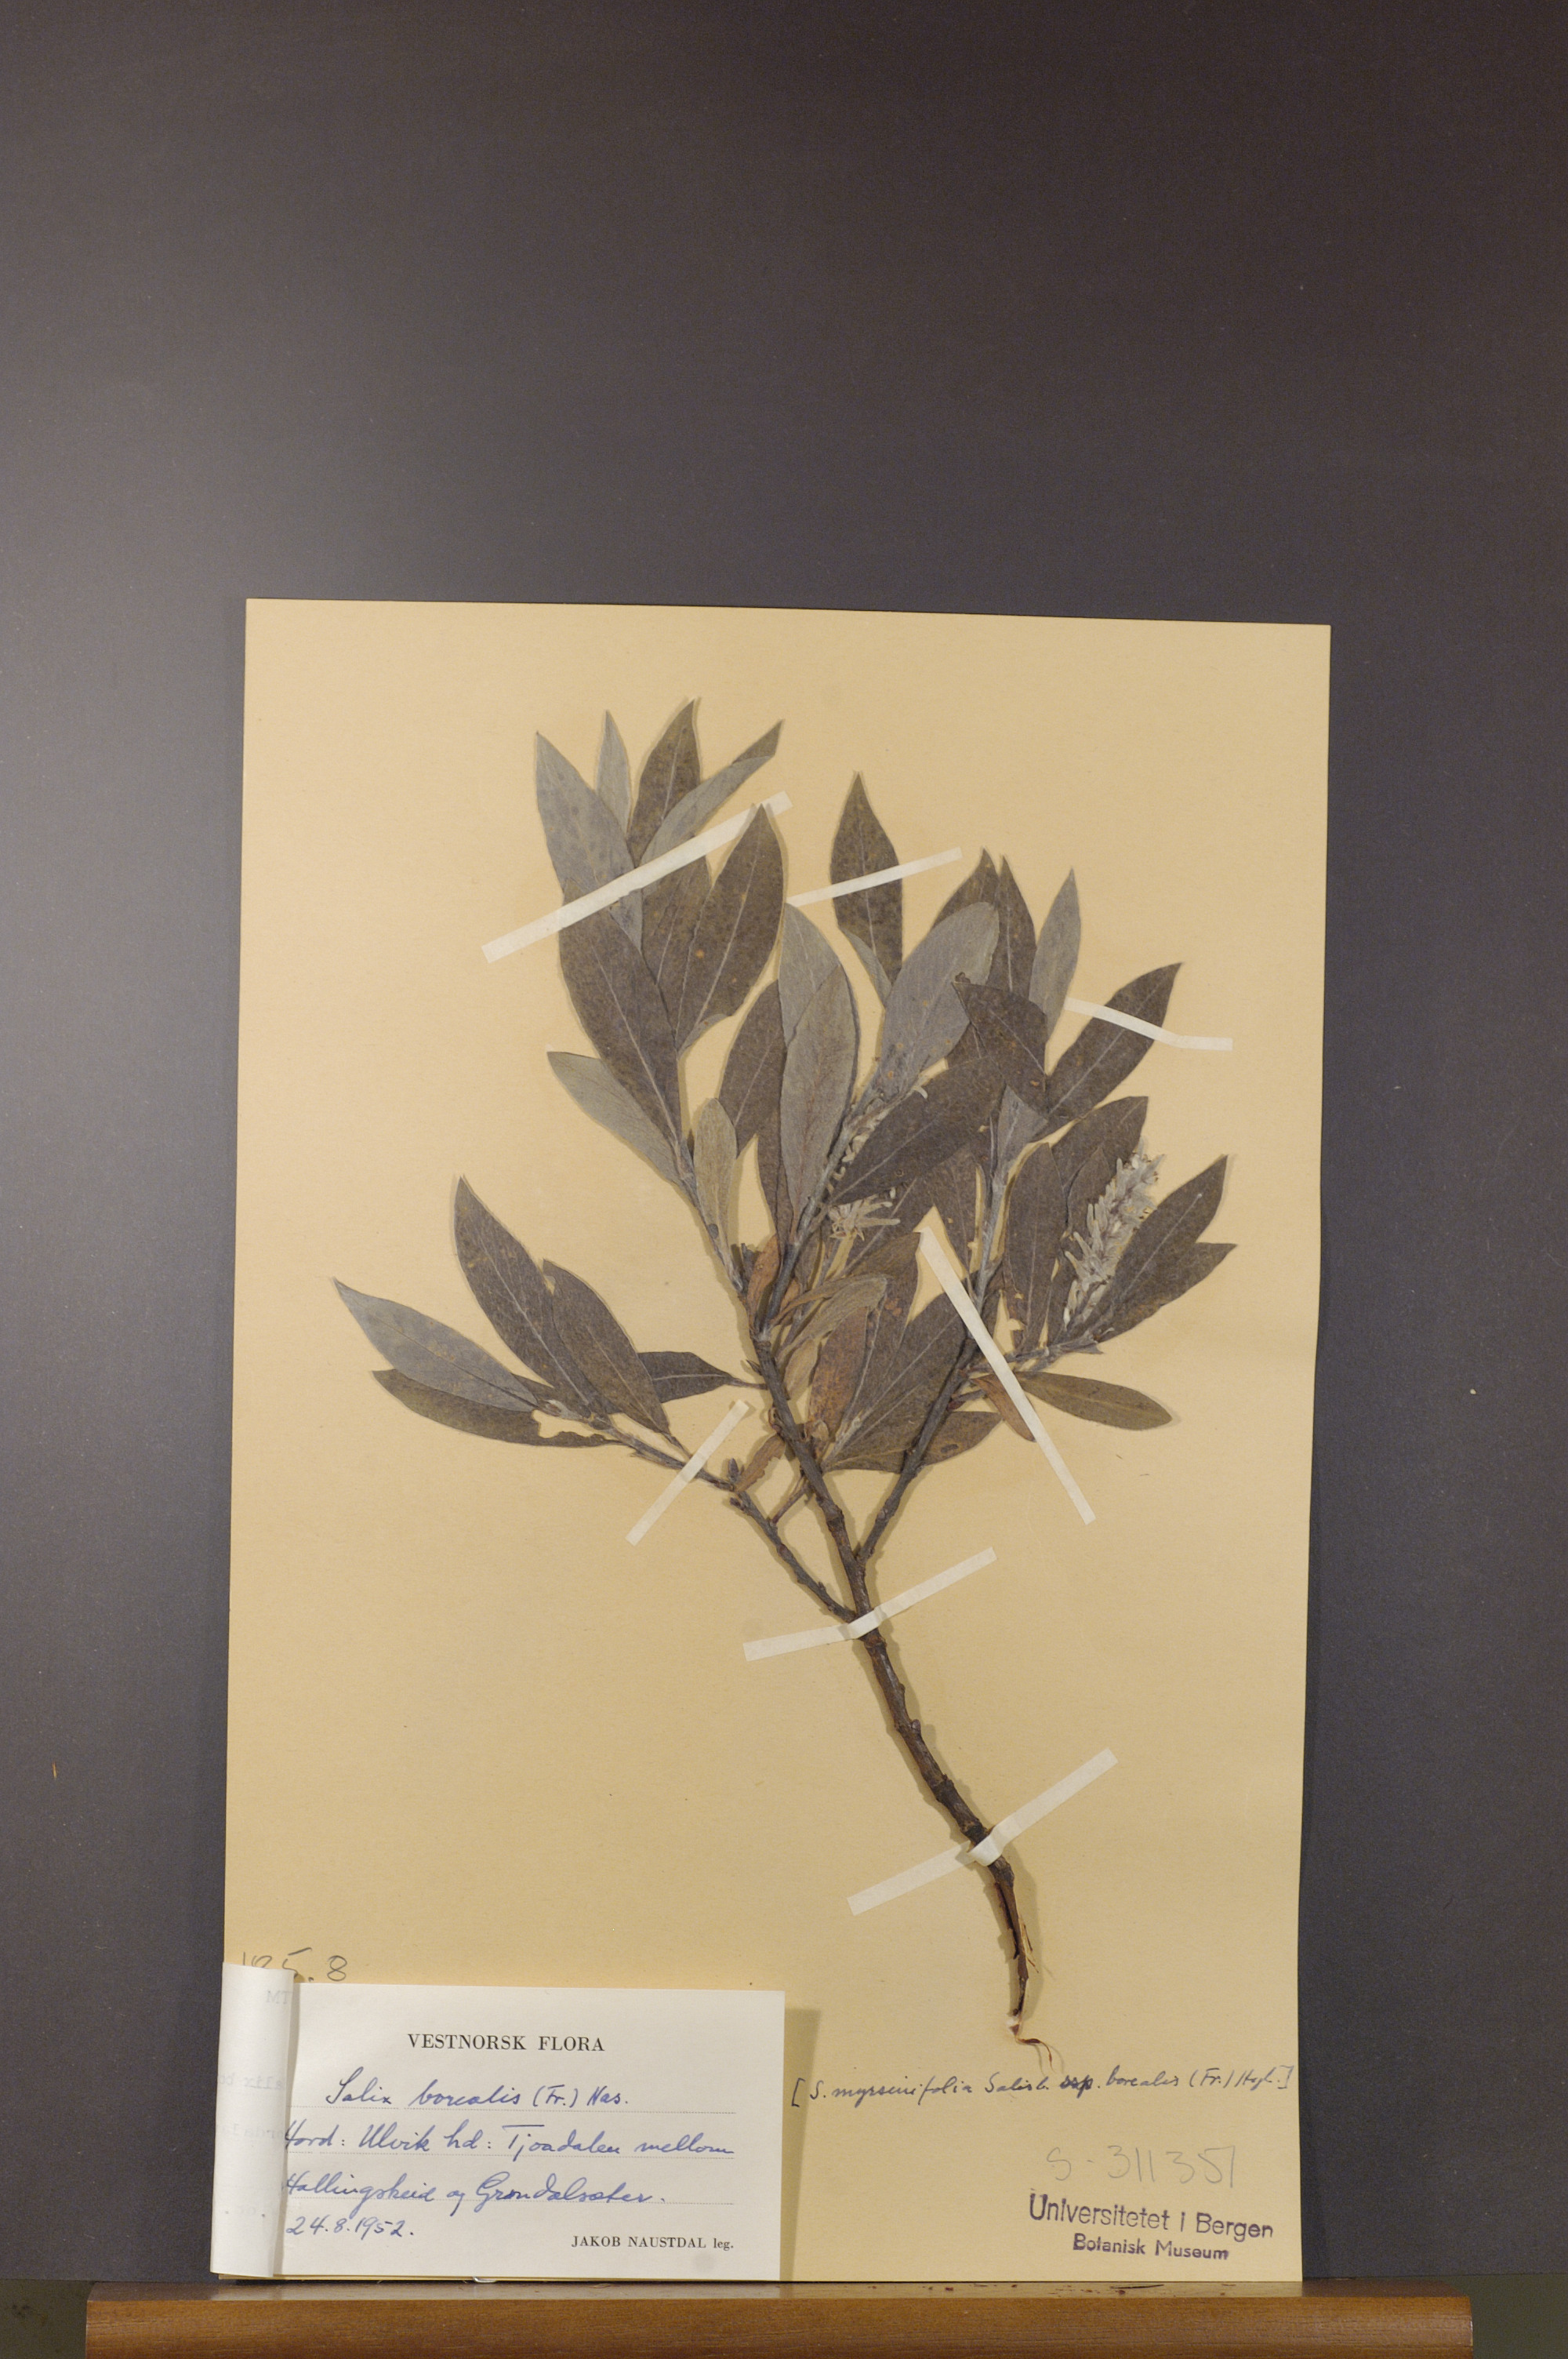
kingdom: Plantae
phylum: Tracheophyta
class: Magnoliopsida
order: Malpighiales
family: Salicaceae
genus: Salix
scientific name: Salix myrsinifolia
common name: Dark-leaved willow
